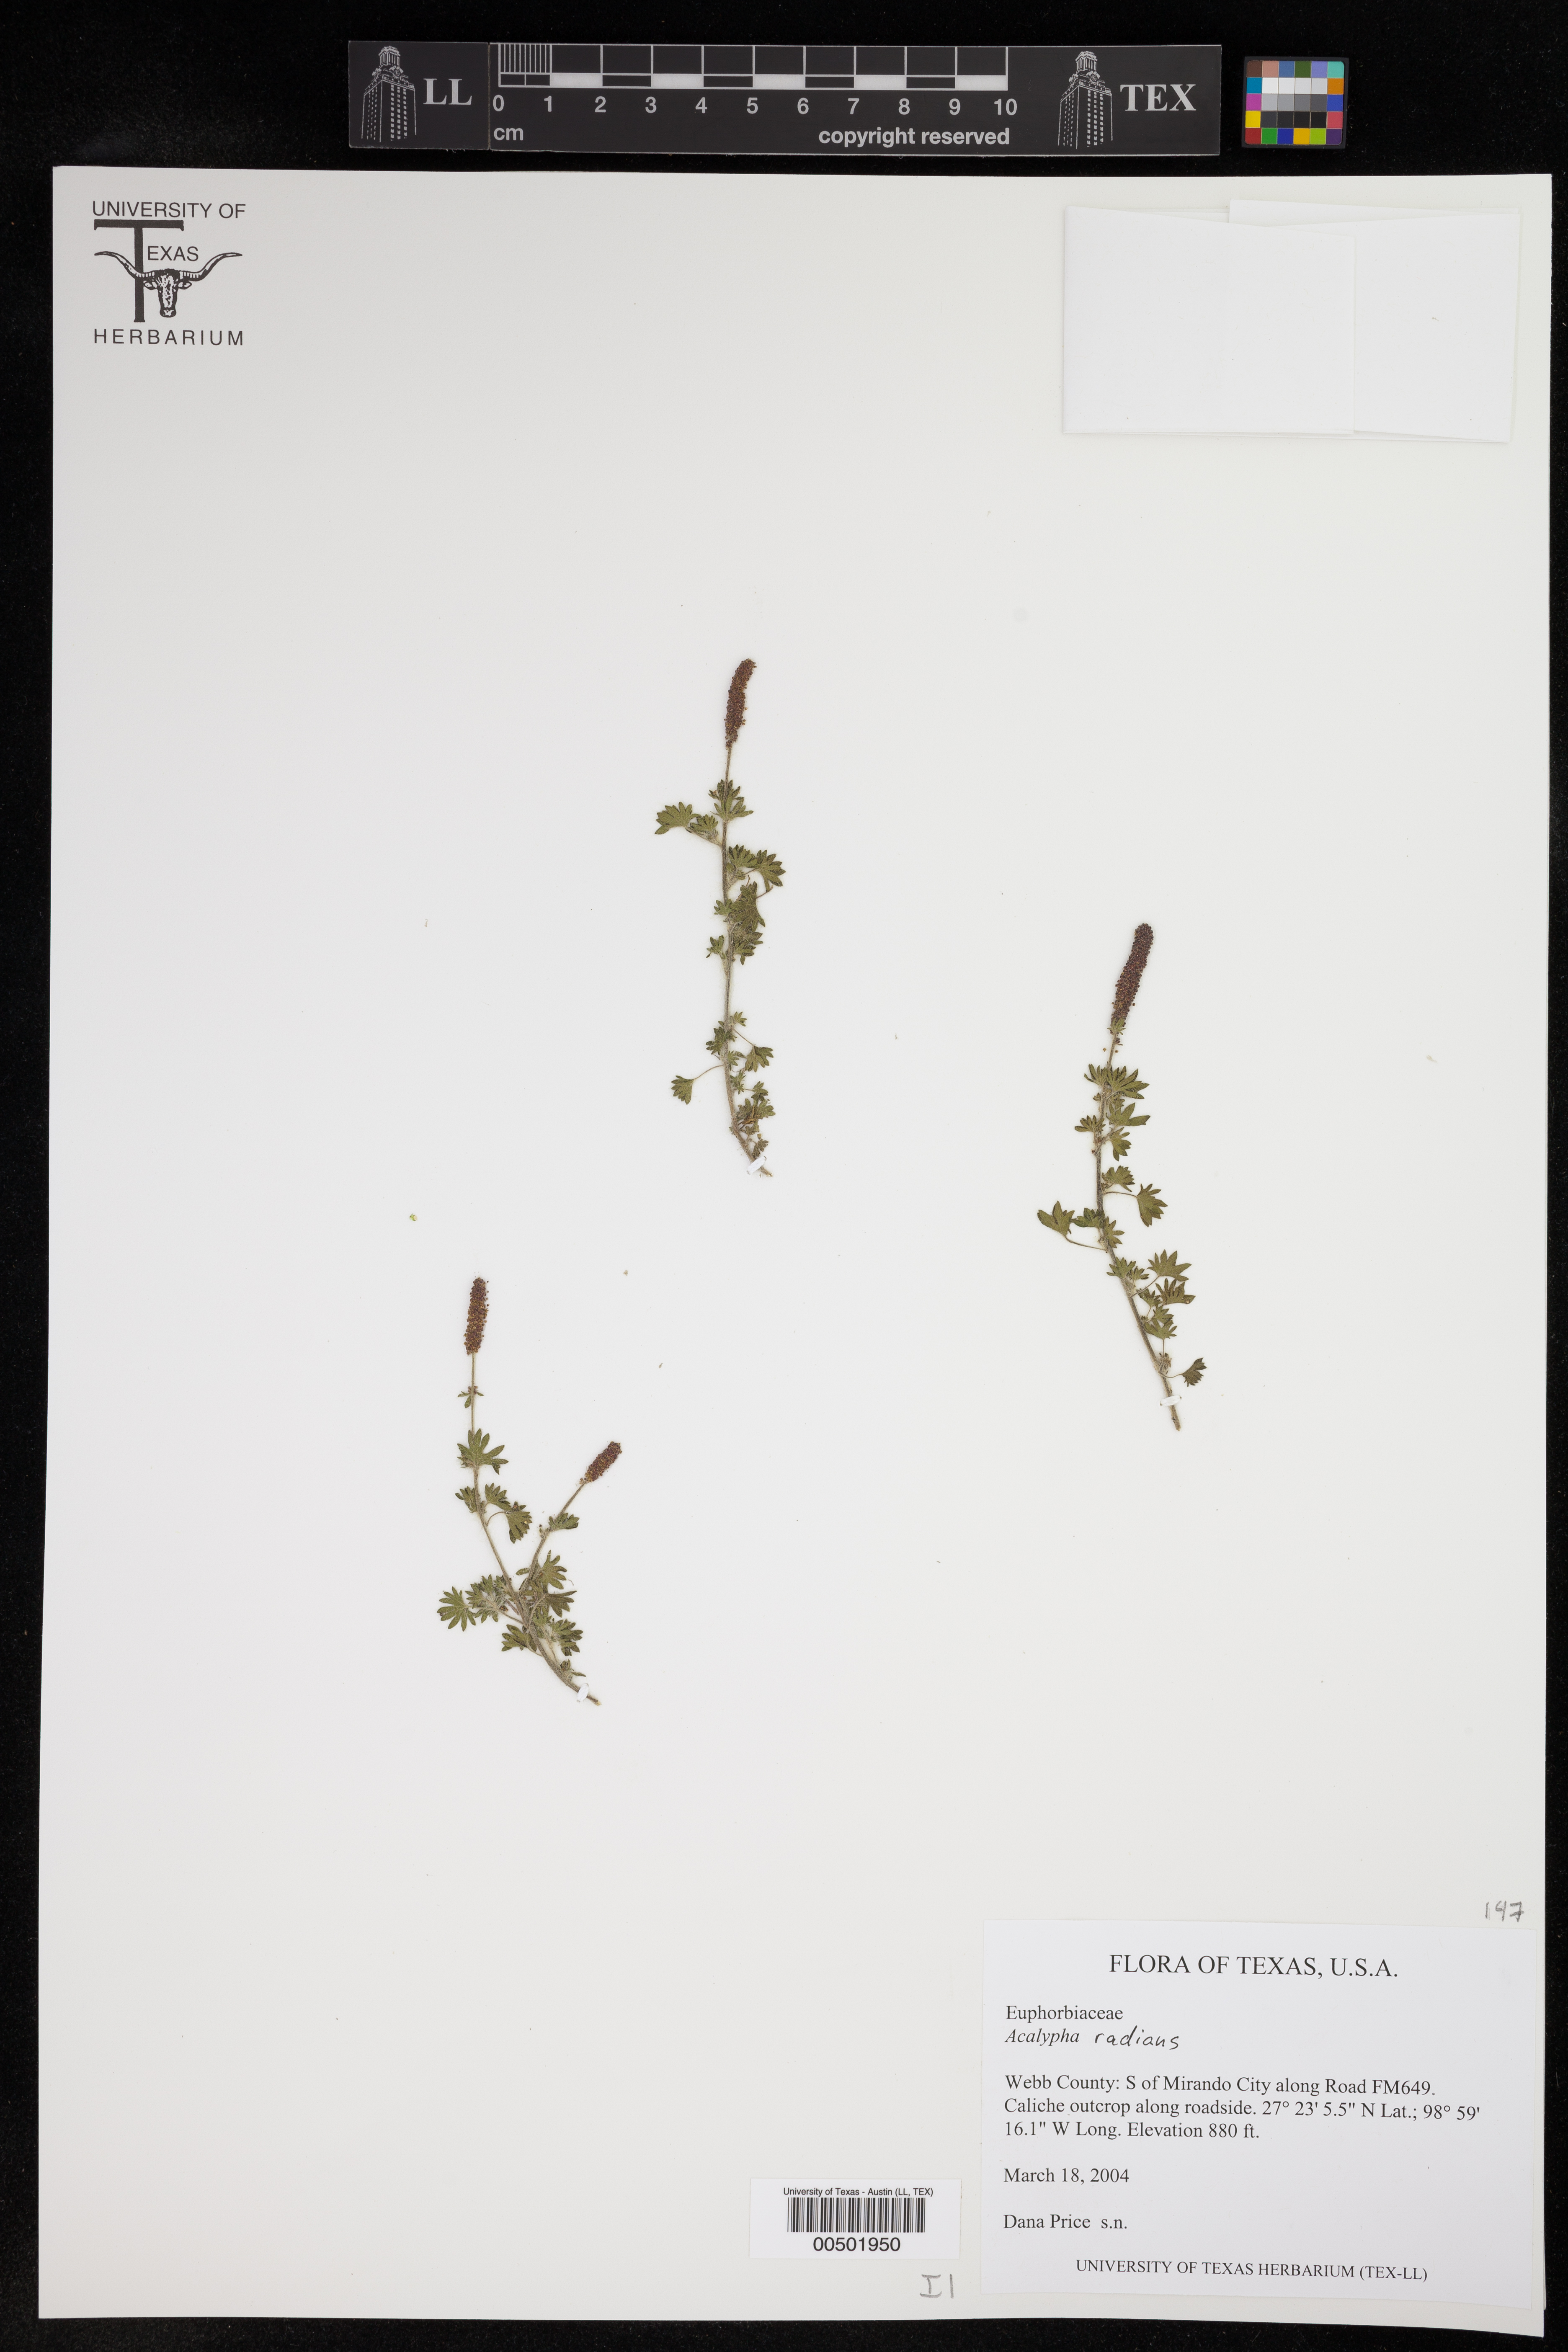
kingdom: Plantae
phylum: Tracheophyta
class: Magnoliopsida
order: Malpighiales
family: Euphorbiaceae
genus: Acalypha
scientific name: Acalypha radians
